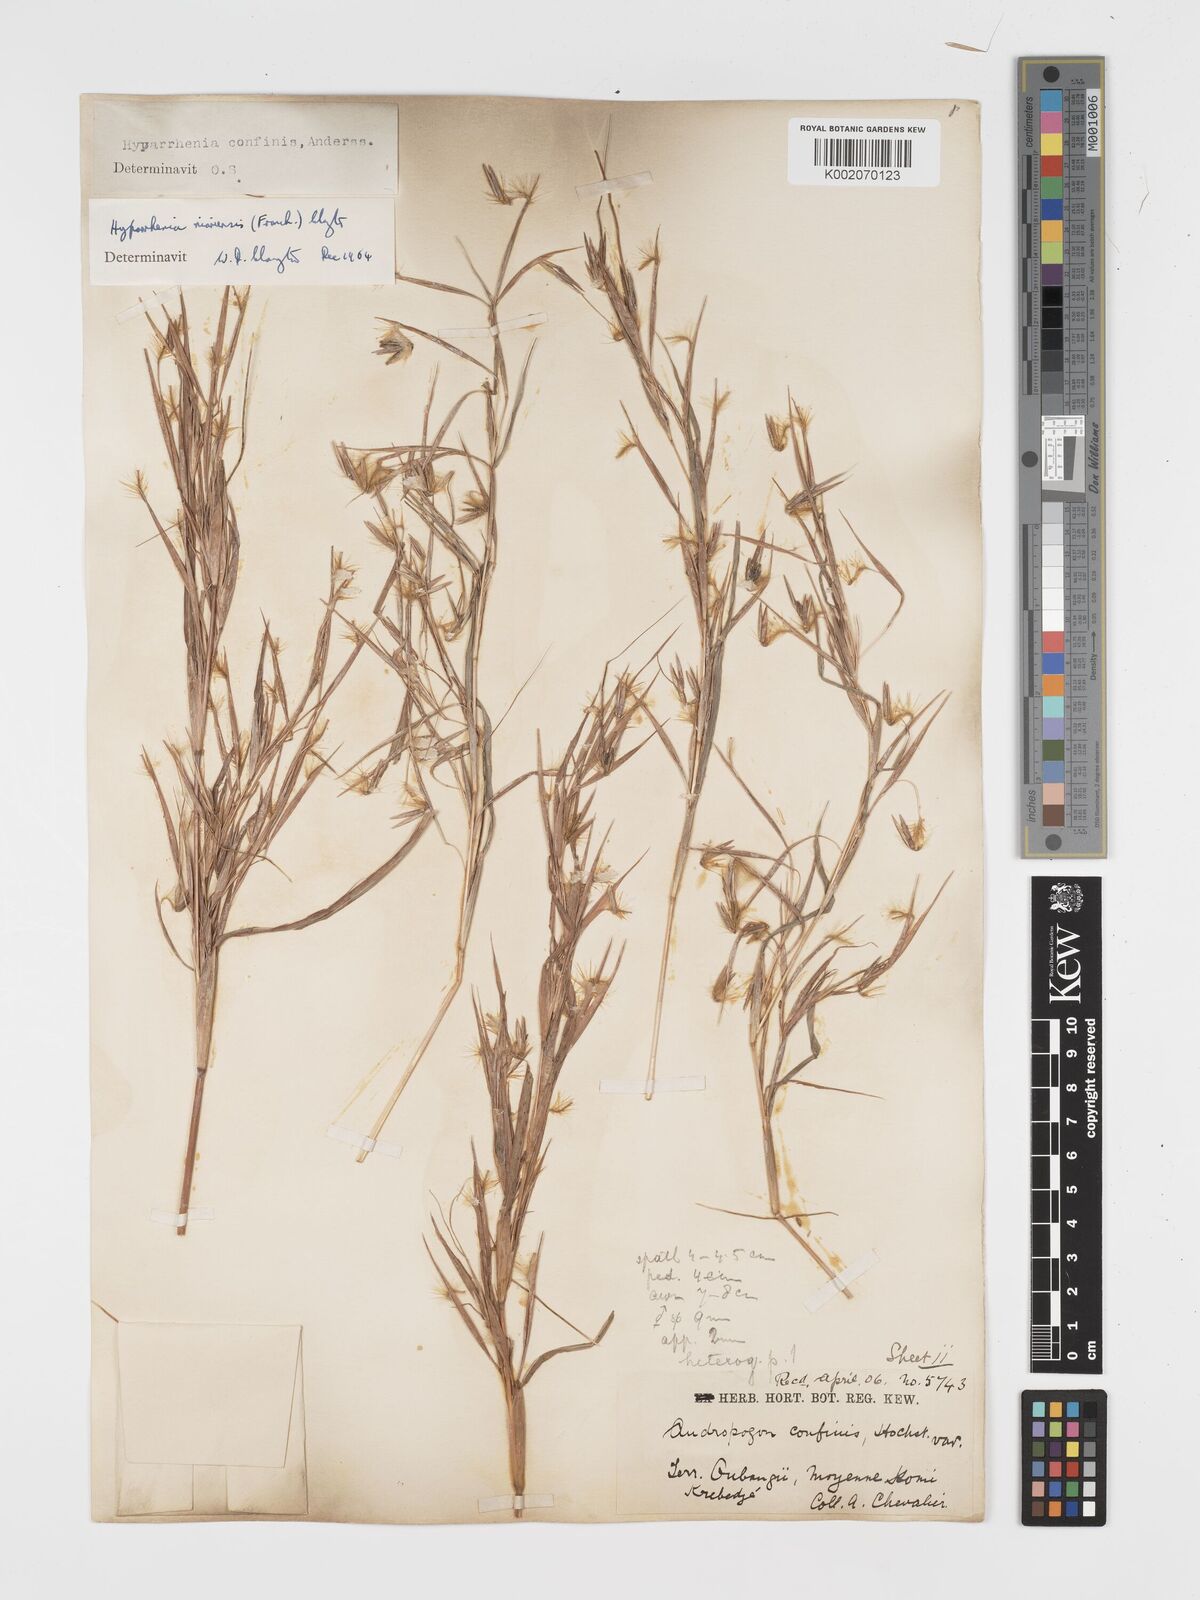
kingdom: Plantae
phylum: Tracheophyta
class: Liliopsida
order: Poales
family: Poaceae
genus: Hyparrhenia
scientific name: Hyparrhenia niariensis
